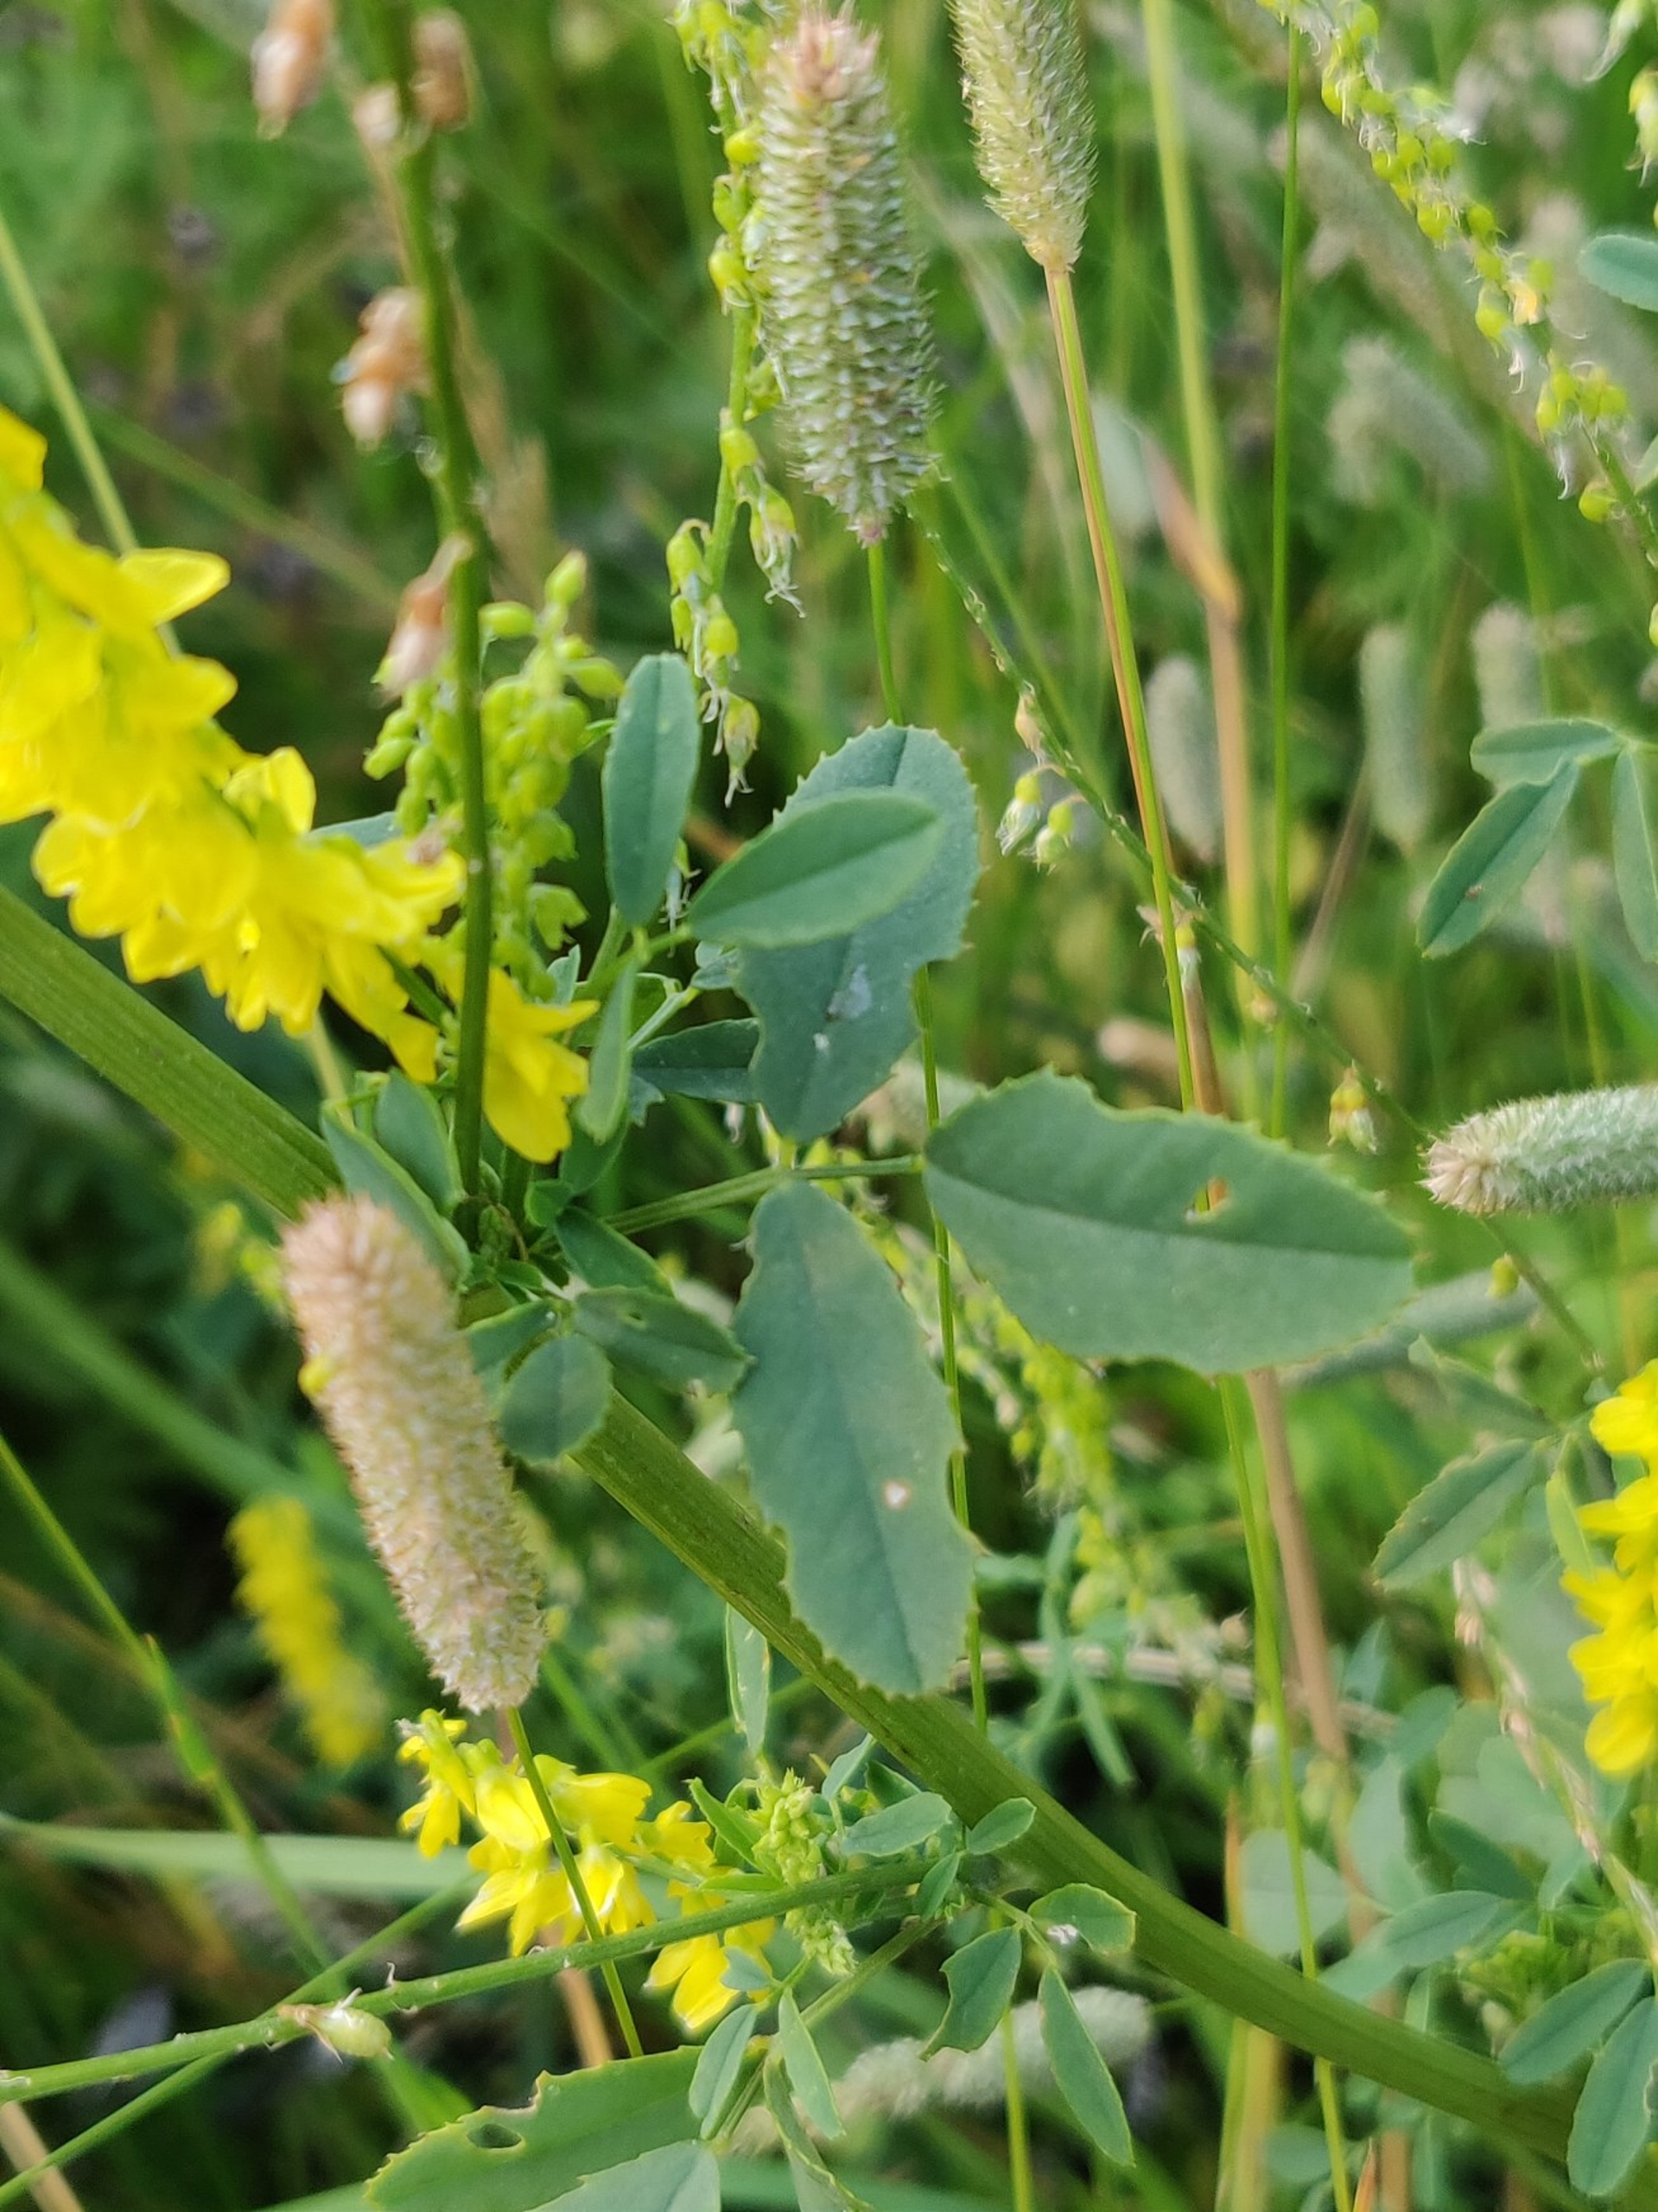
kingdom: Plantae
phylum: Tracheophyta
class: Magnoliopsida
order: Fabales
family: Fabaceae
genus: Melilotus
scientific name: Melilotus officinalis
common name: Mark-stenkløver
